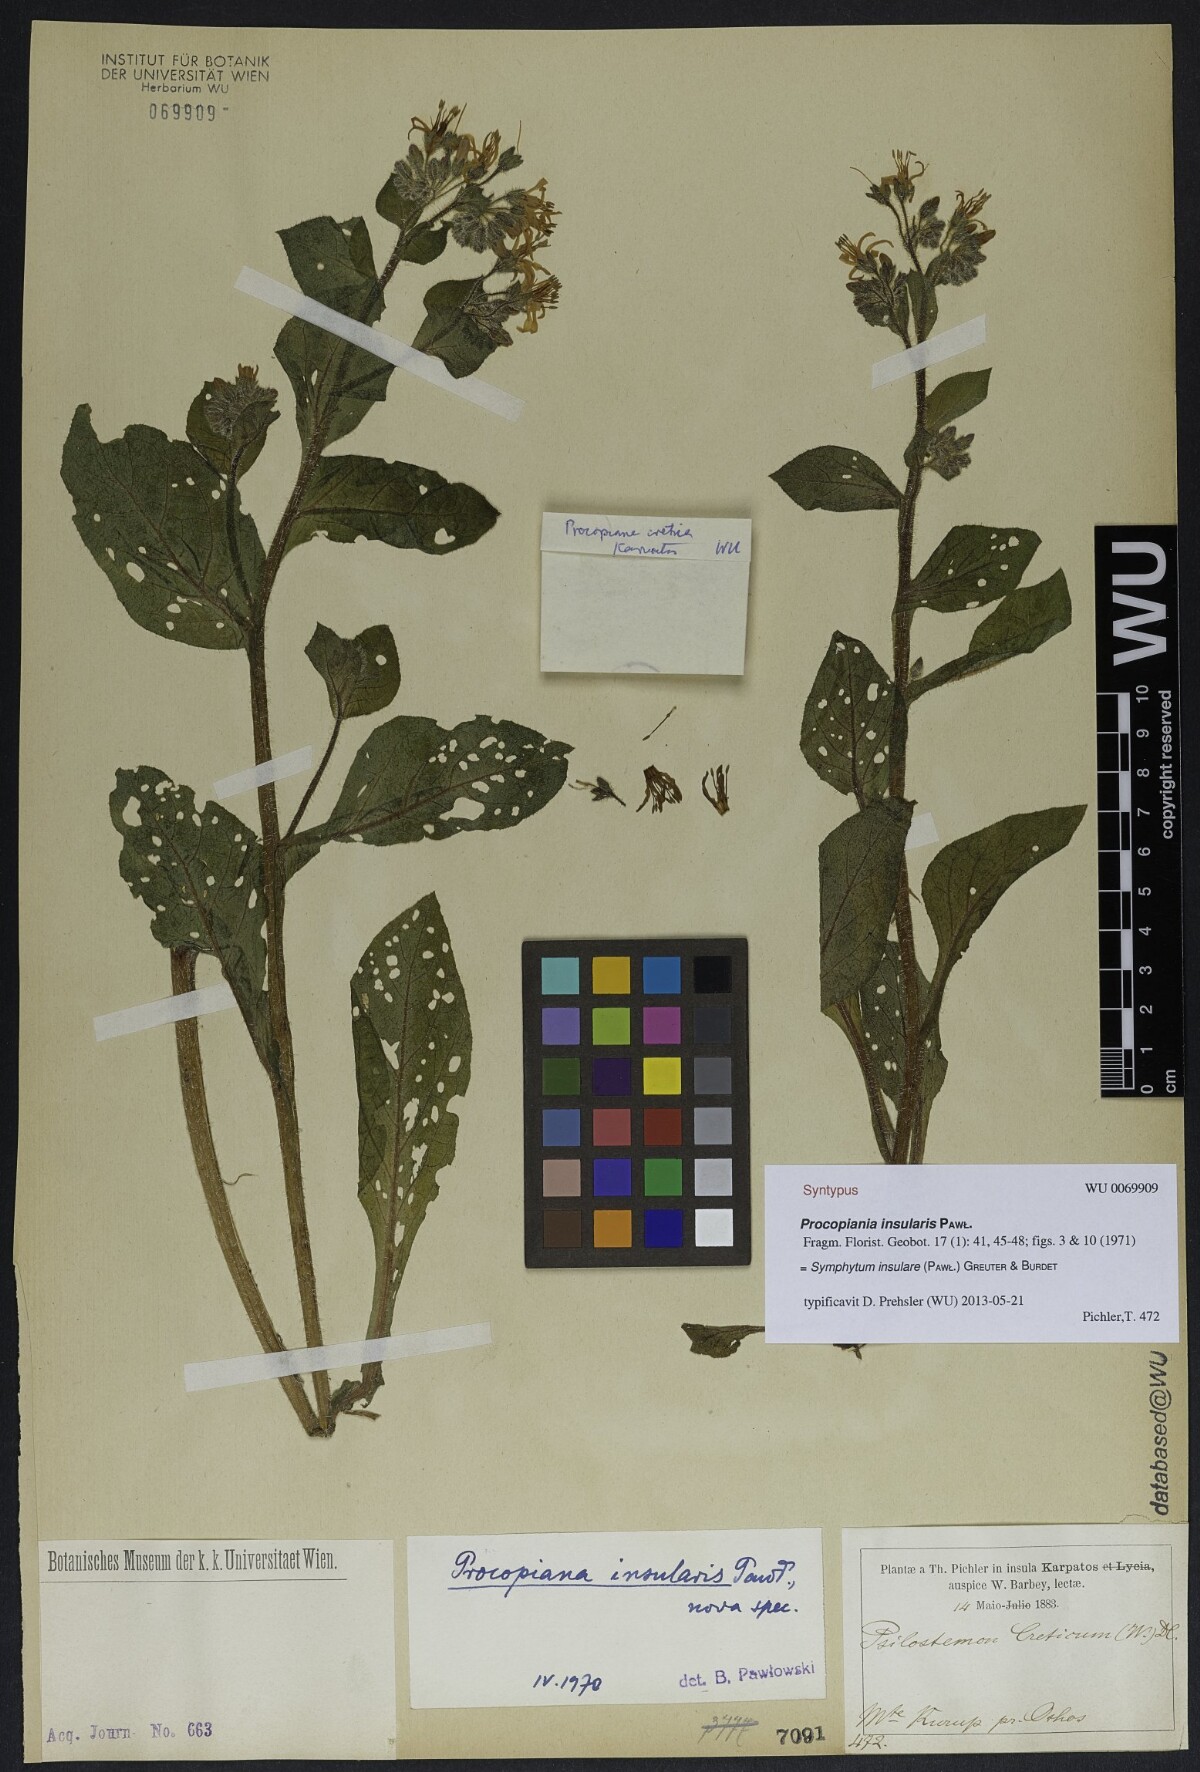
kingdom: Plantae
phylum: Tracheophyta
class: Magnoliopsida
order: Boraginales
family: Boraginaceae
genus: Symphytum
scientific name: Symphytum creticum
